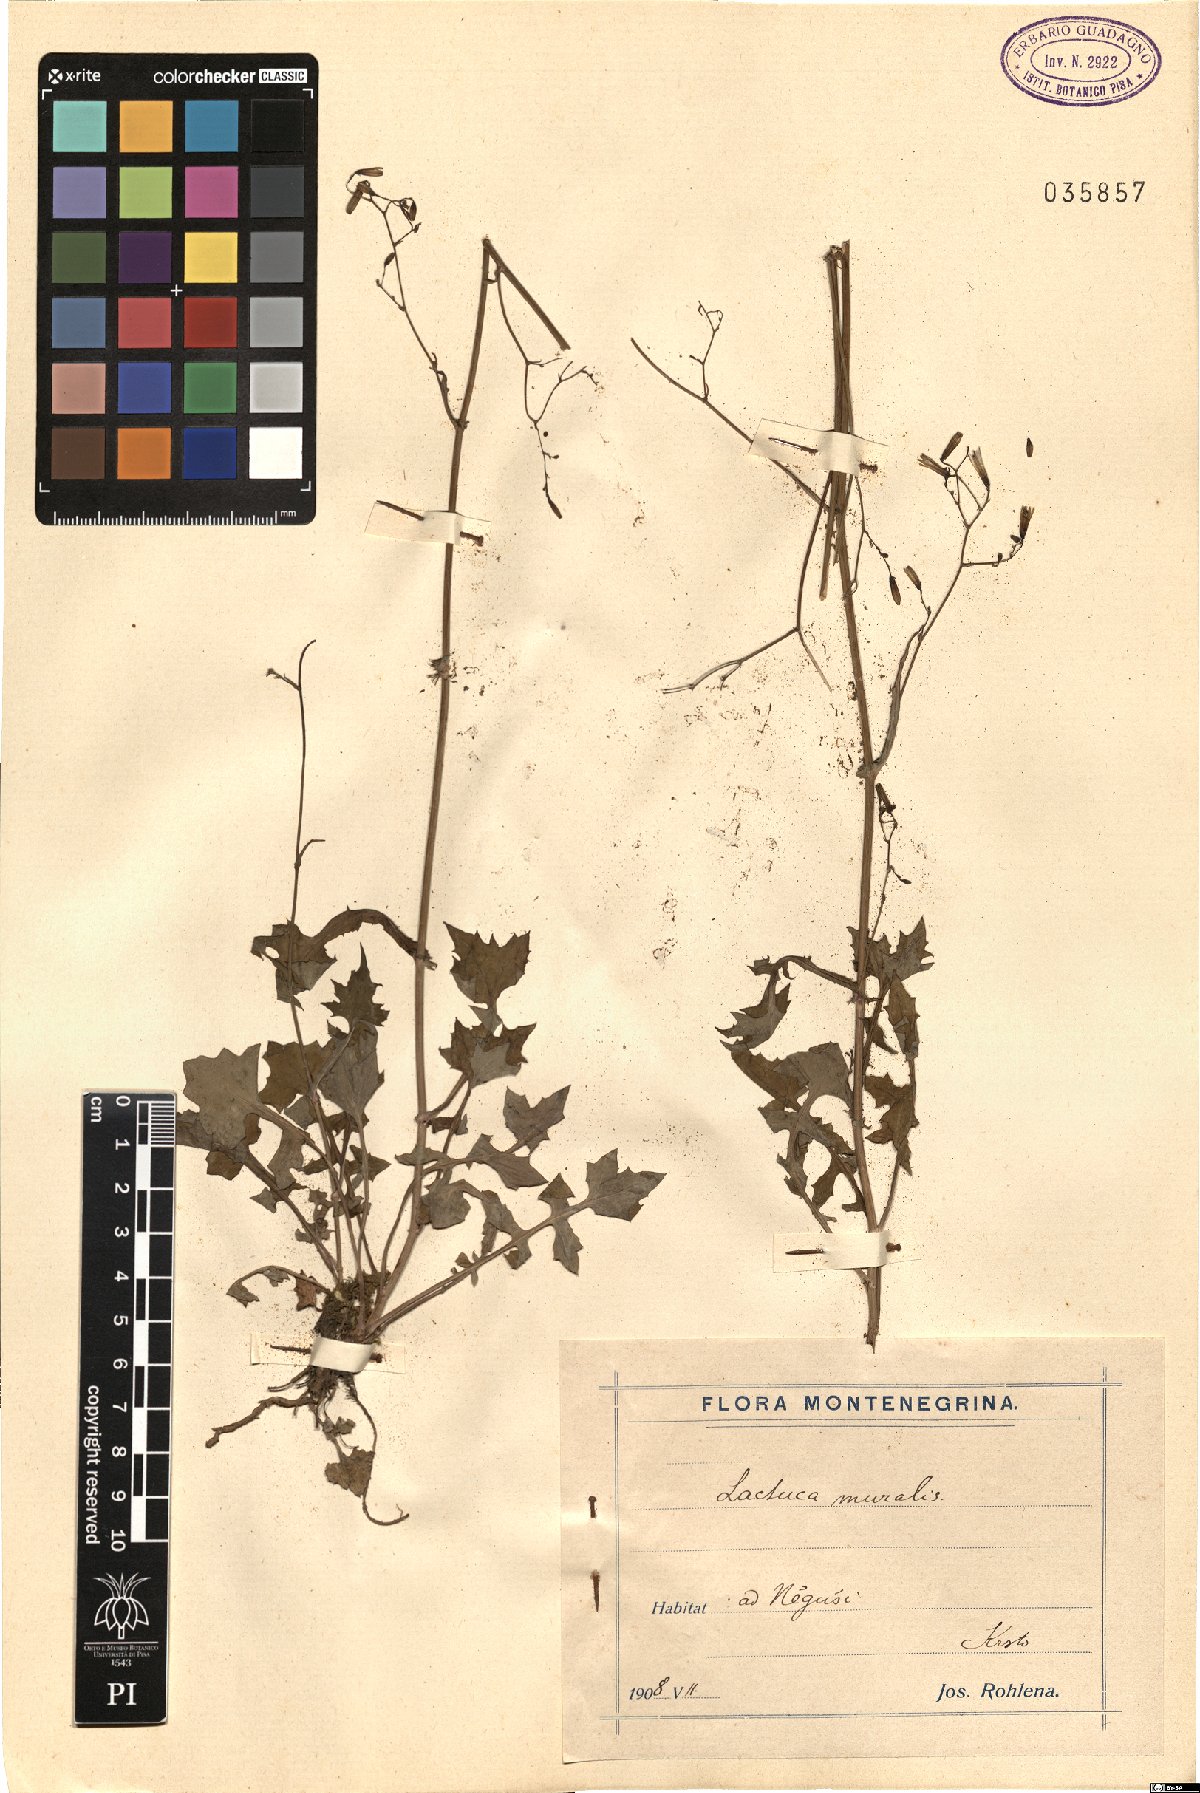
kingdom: Plantae
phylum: Tracheophyta
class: Magnoliopsida
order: Asterales
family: Asteraceae
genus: Mycelis
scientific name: Mycelis muralis
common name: Wall lettuce
